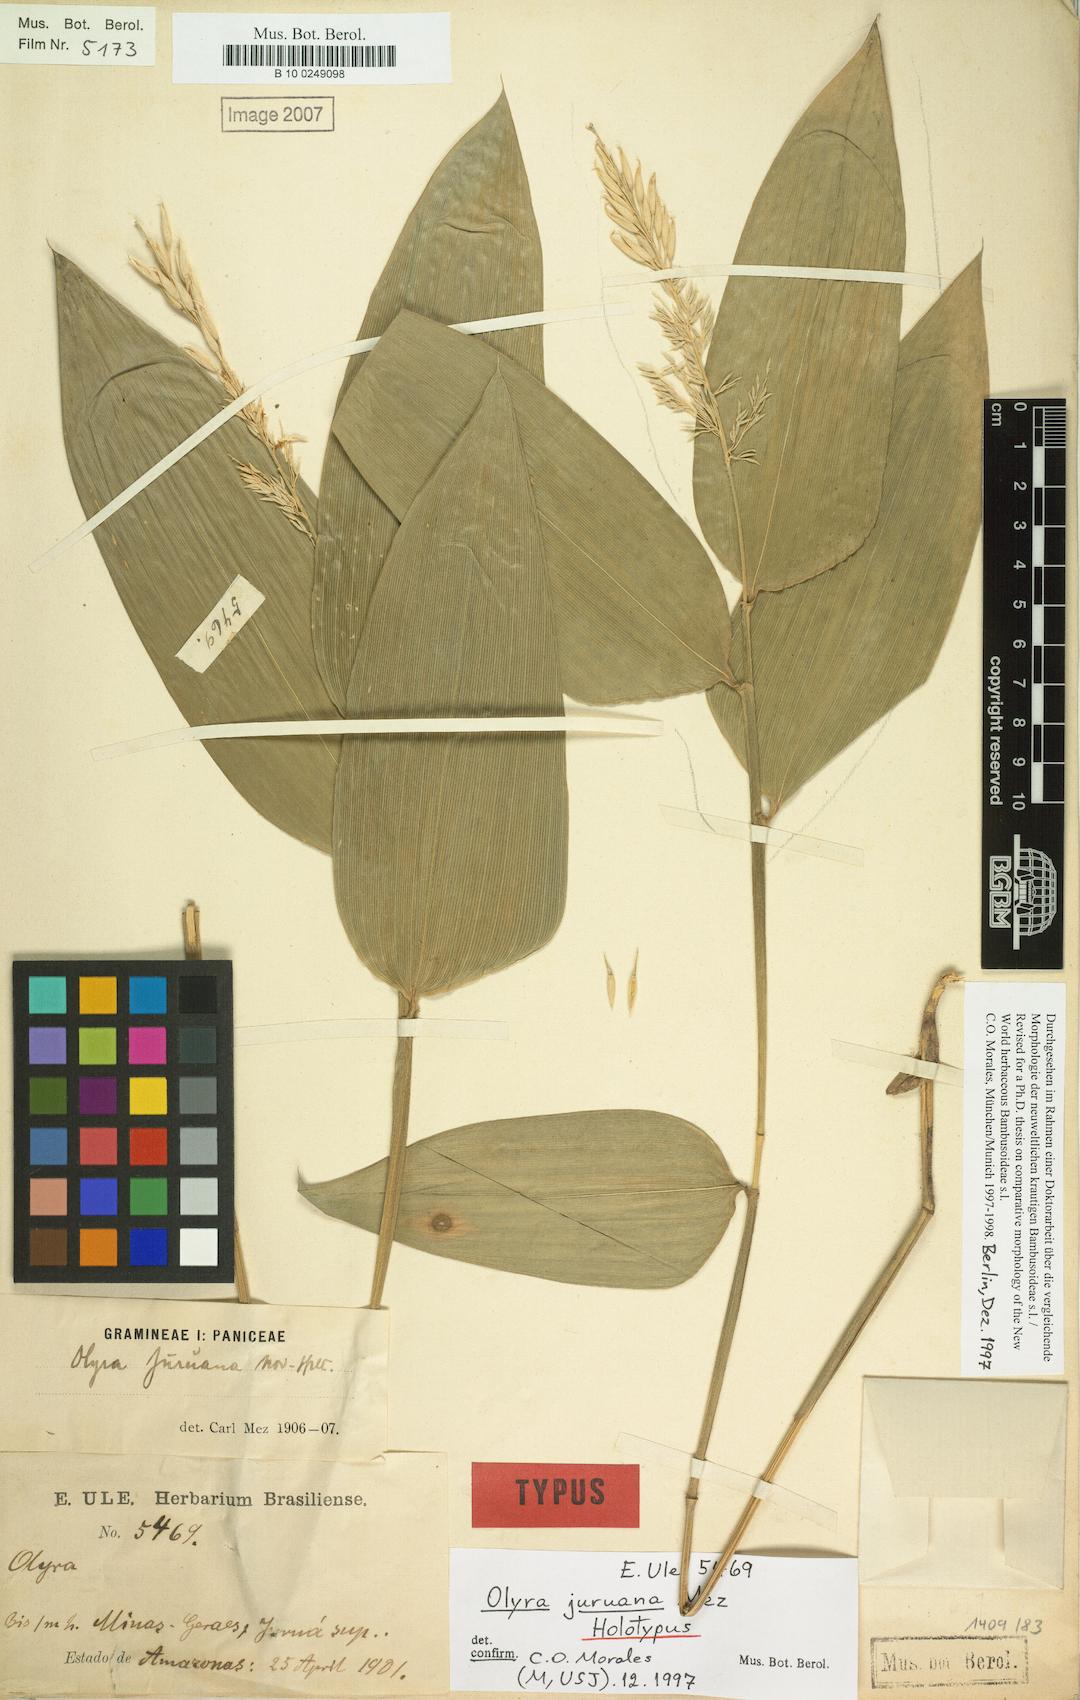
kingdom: Plantae
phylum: Tracheophyta
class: Liliopsida
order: Poales
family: Poaceae
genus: Olyra
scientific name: Olyra juruana
